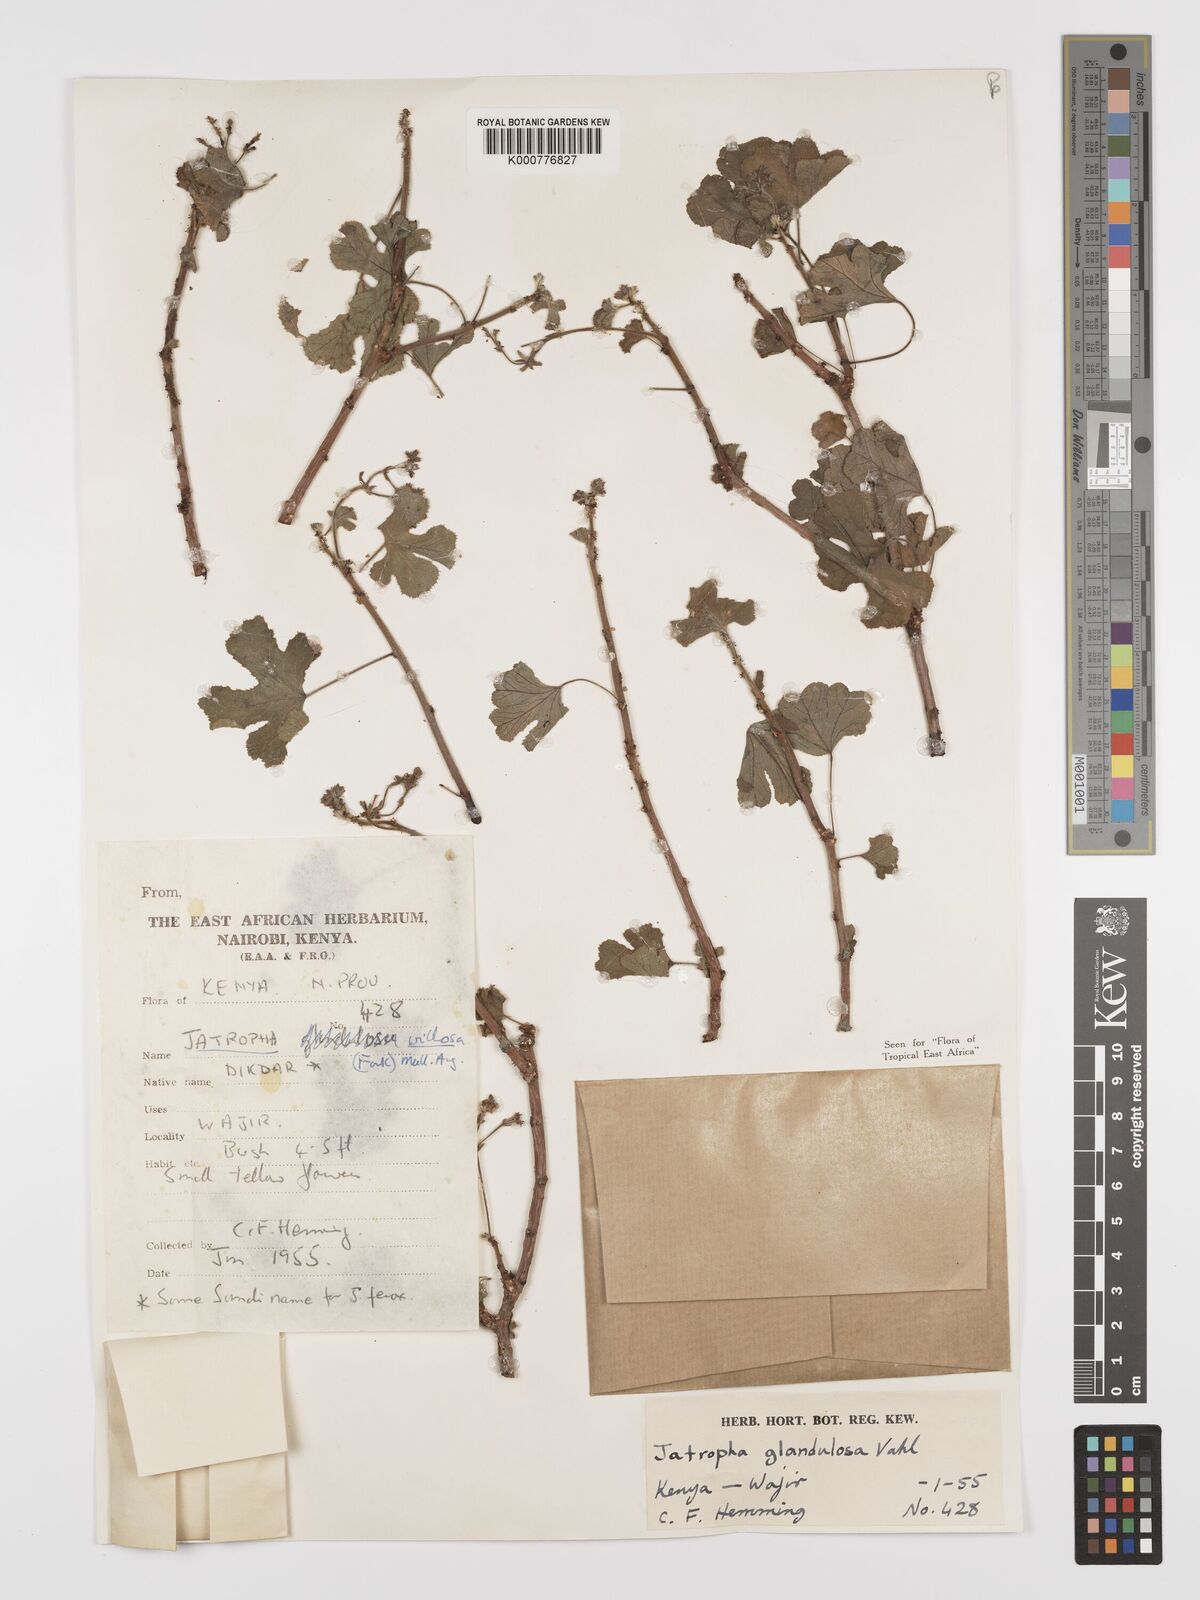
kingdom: Plantae
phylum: Tracheophyta
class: Magnoliopsida
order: Malpighiales
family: Euphorbiaceae
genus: Jatropha
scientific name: Jatropha pelargoniifolia
